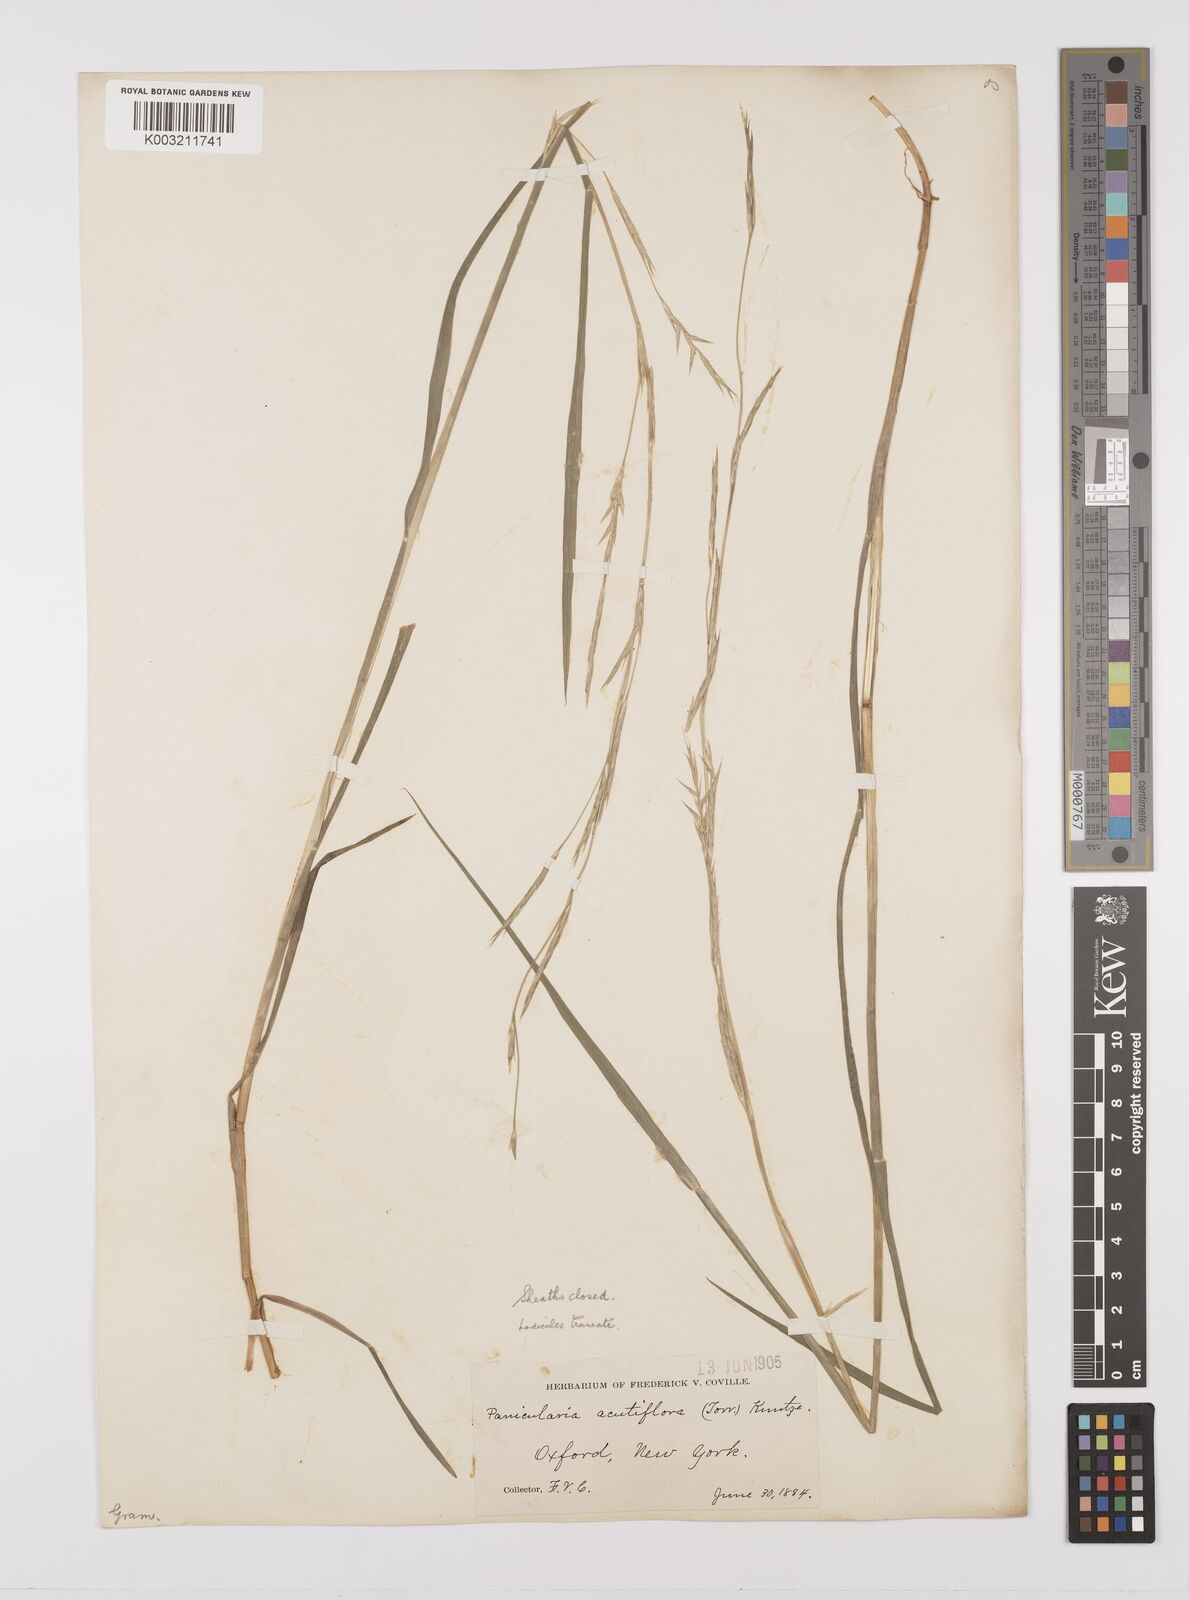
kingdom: Plantae
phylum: Tracheophyta
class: Liliopsida
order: Poales
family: Poaceae
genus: Glyceria
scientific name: Glyceria acutiflora
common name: Sharp-glumed manna-grass
